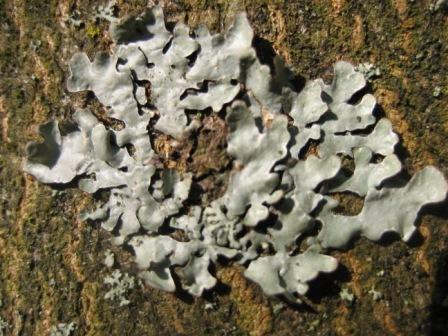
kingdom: Fungi
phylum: Ascomycota
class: Lecanoromycetes
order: Lecanorales
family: Parmeliaceae
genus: Parmelia
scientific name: Parmelia sulcata
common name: rynket skållav
